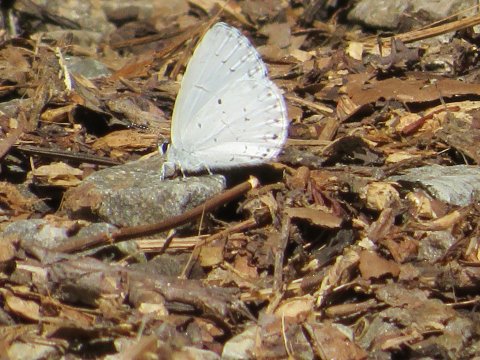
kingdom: Animalia
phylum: Arthropoda
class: Insecta
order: Lepidoptera
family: Lycaenidae
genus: Celastrina
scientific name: Celastrina neglectamajor
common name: Appalachian Azure
